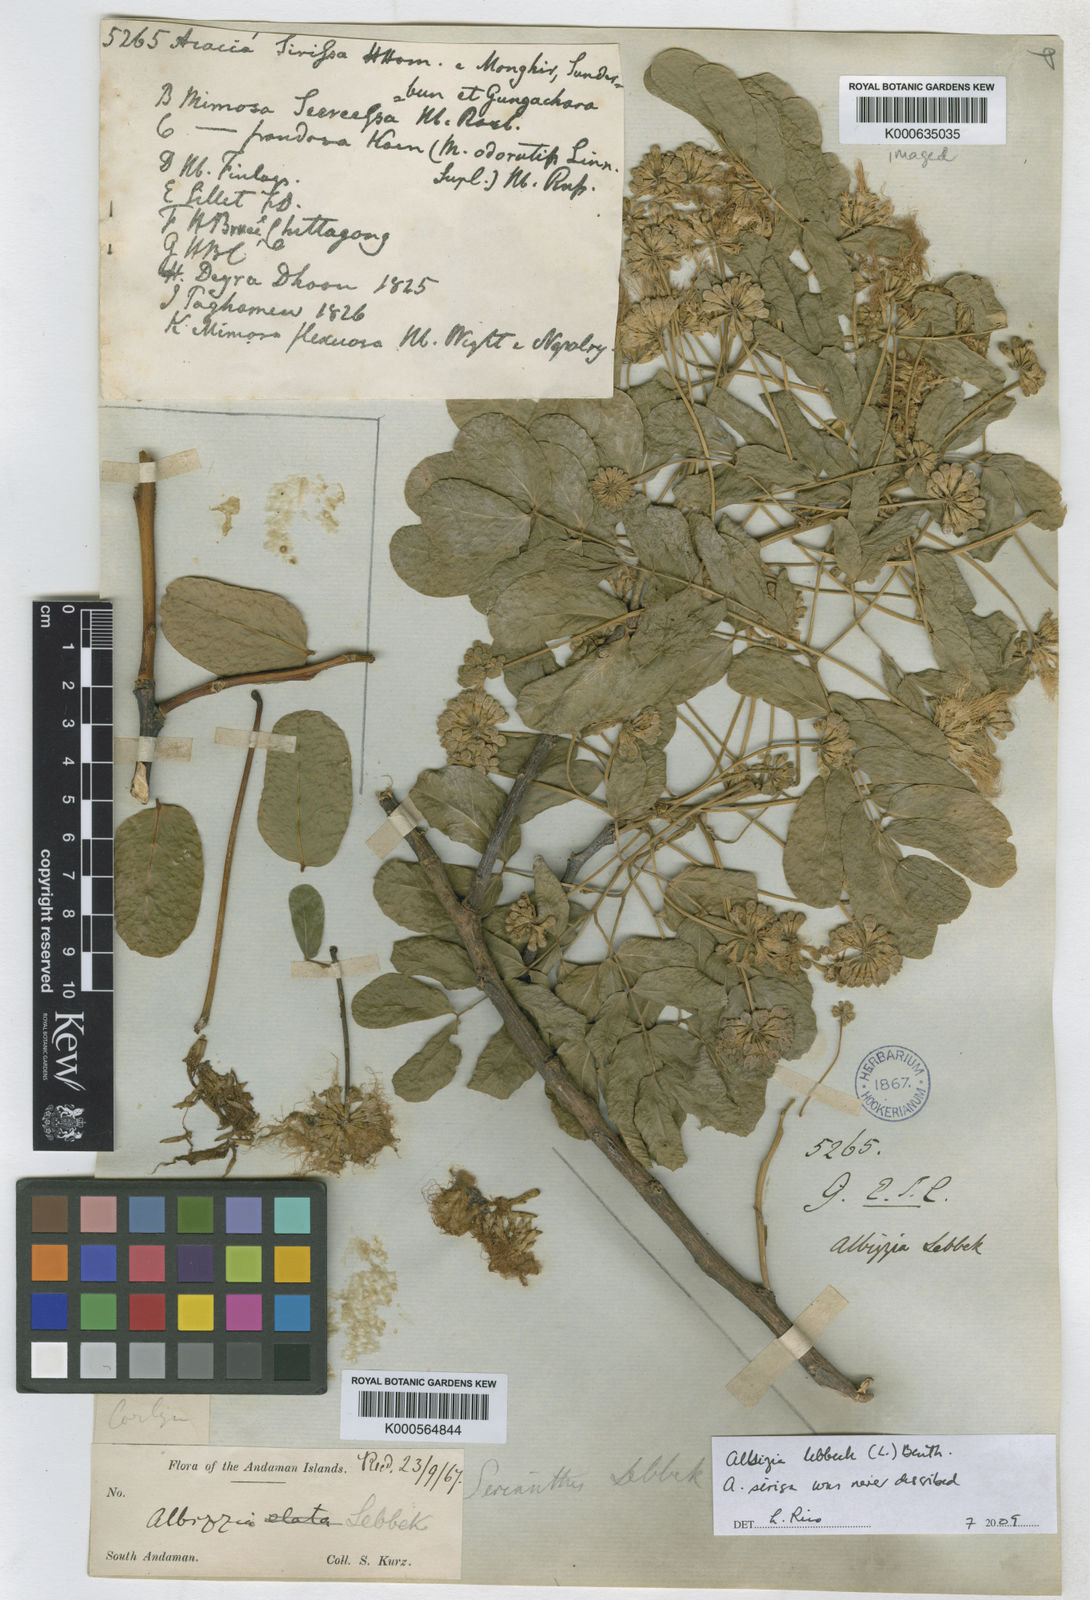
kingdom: Plantae
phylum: Tracheophyta
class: Magnoliopsida
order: Fabales
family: Fabaceae
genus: Albizia
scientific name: Albizia lebbeck
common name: Woman's tongue
